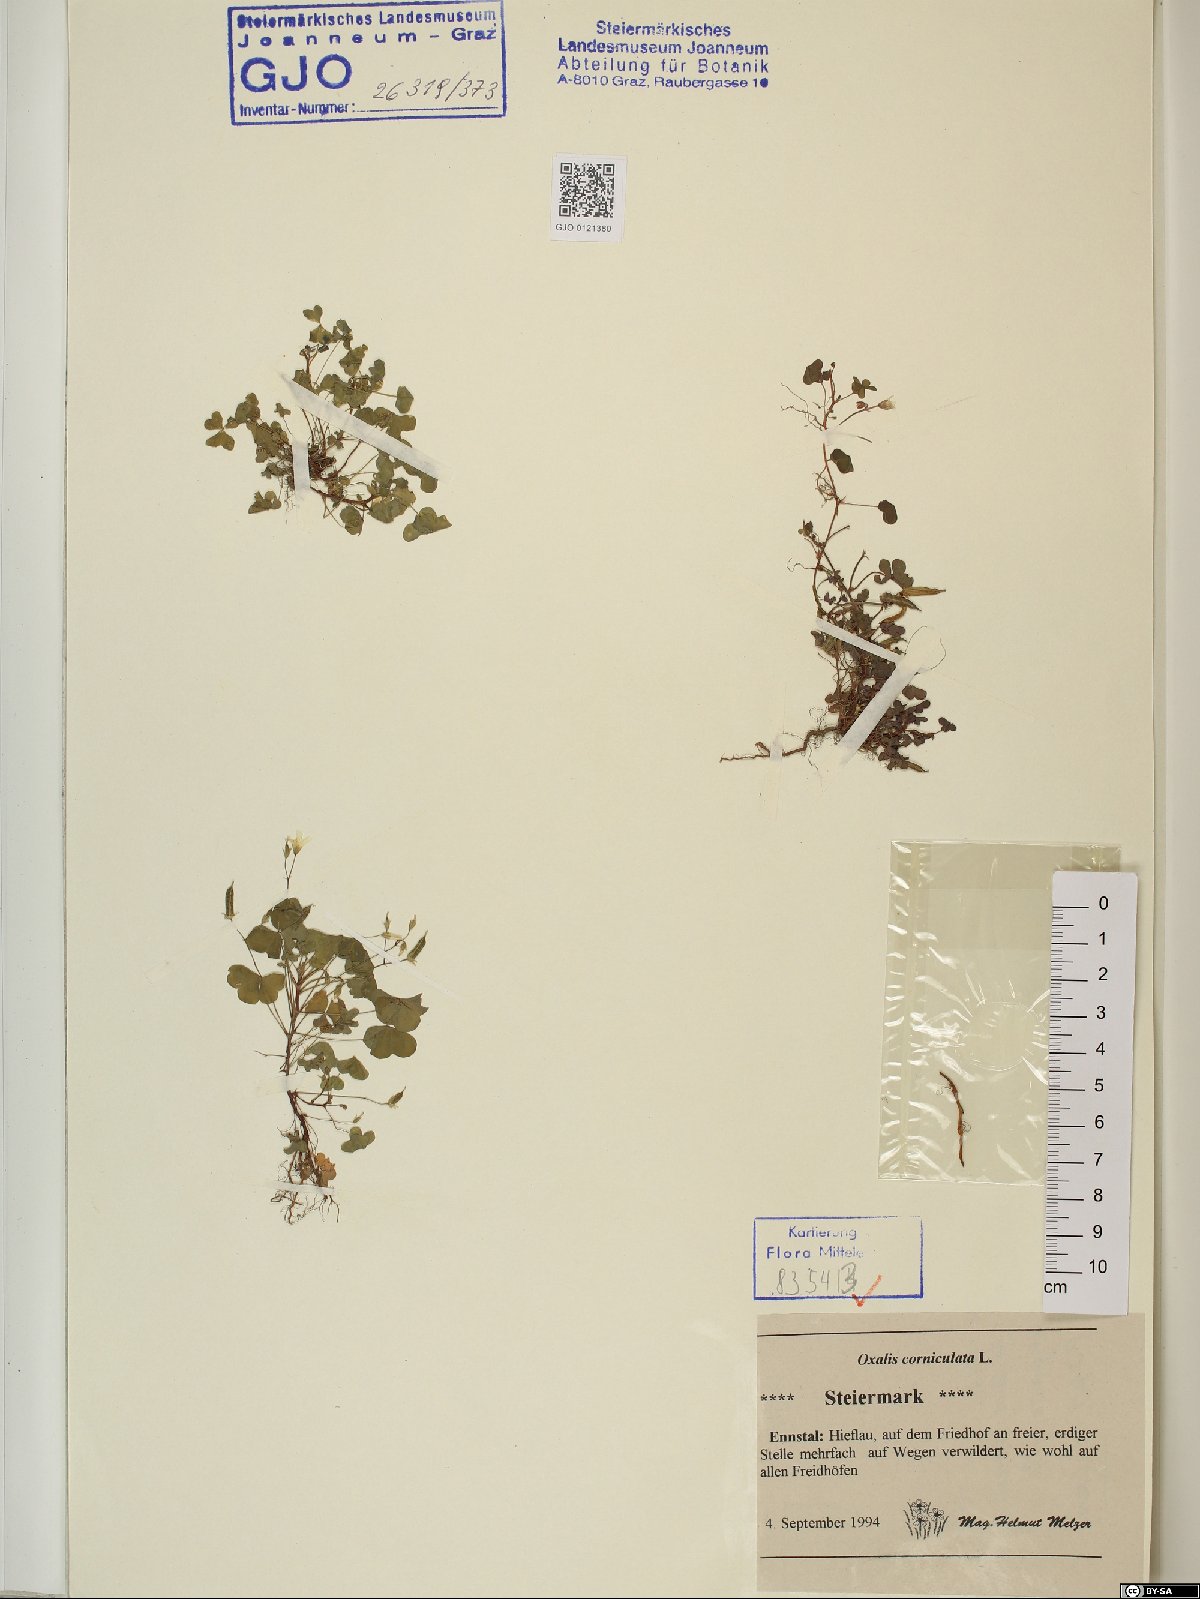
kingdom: Plantae
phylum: Tracheophyta
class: Magnoliopsida
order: Oxalidales
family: Oxalidaceae
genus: Oxalis
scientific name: Oxalis corniculata
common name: Procumbent yellow-sorrel
